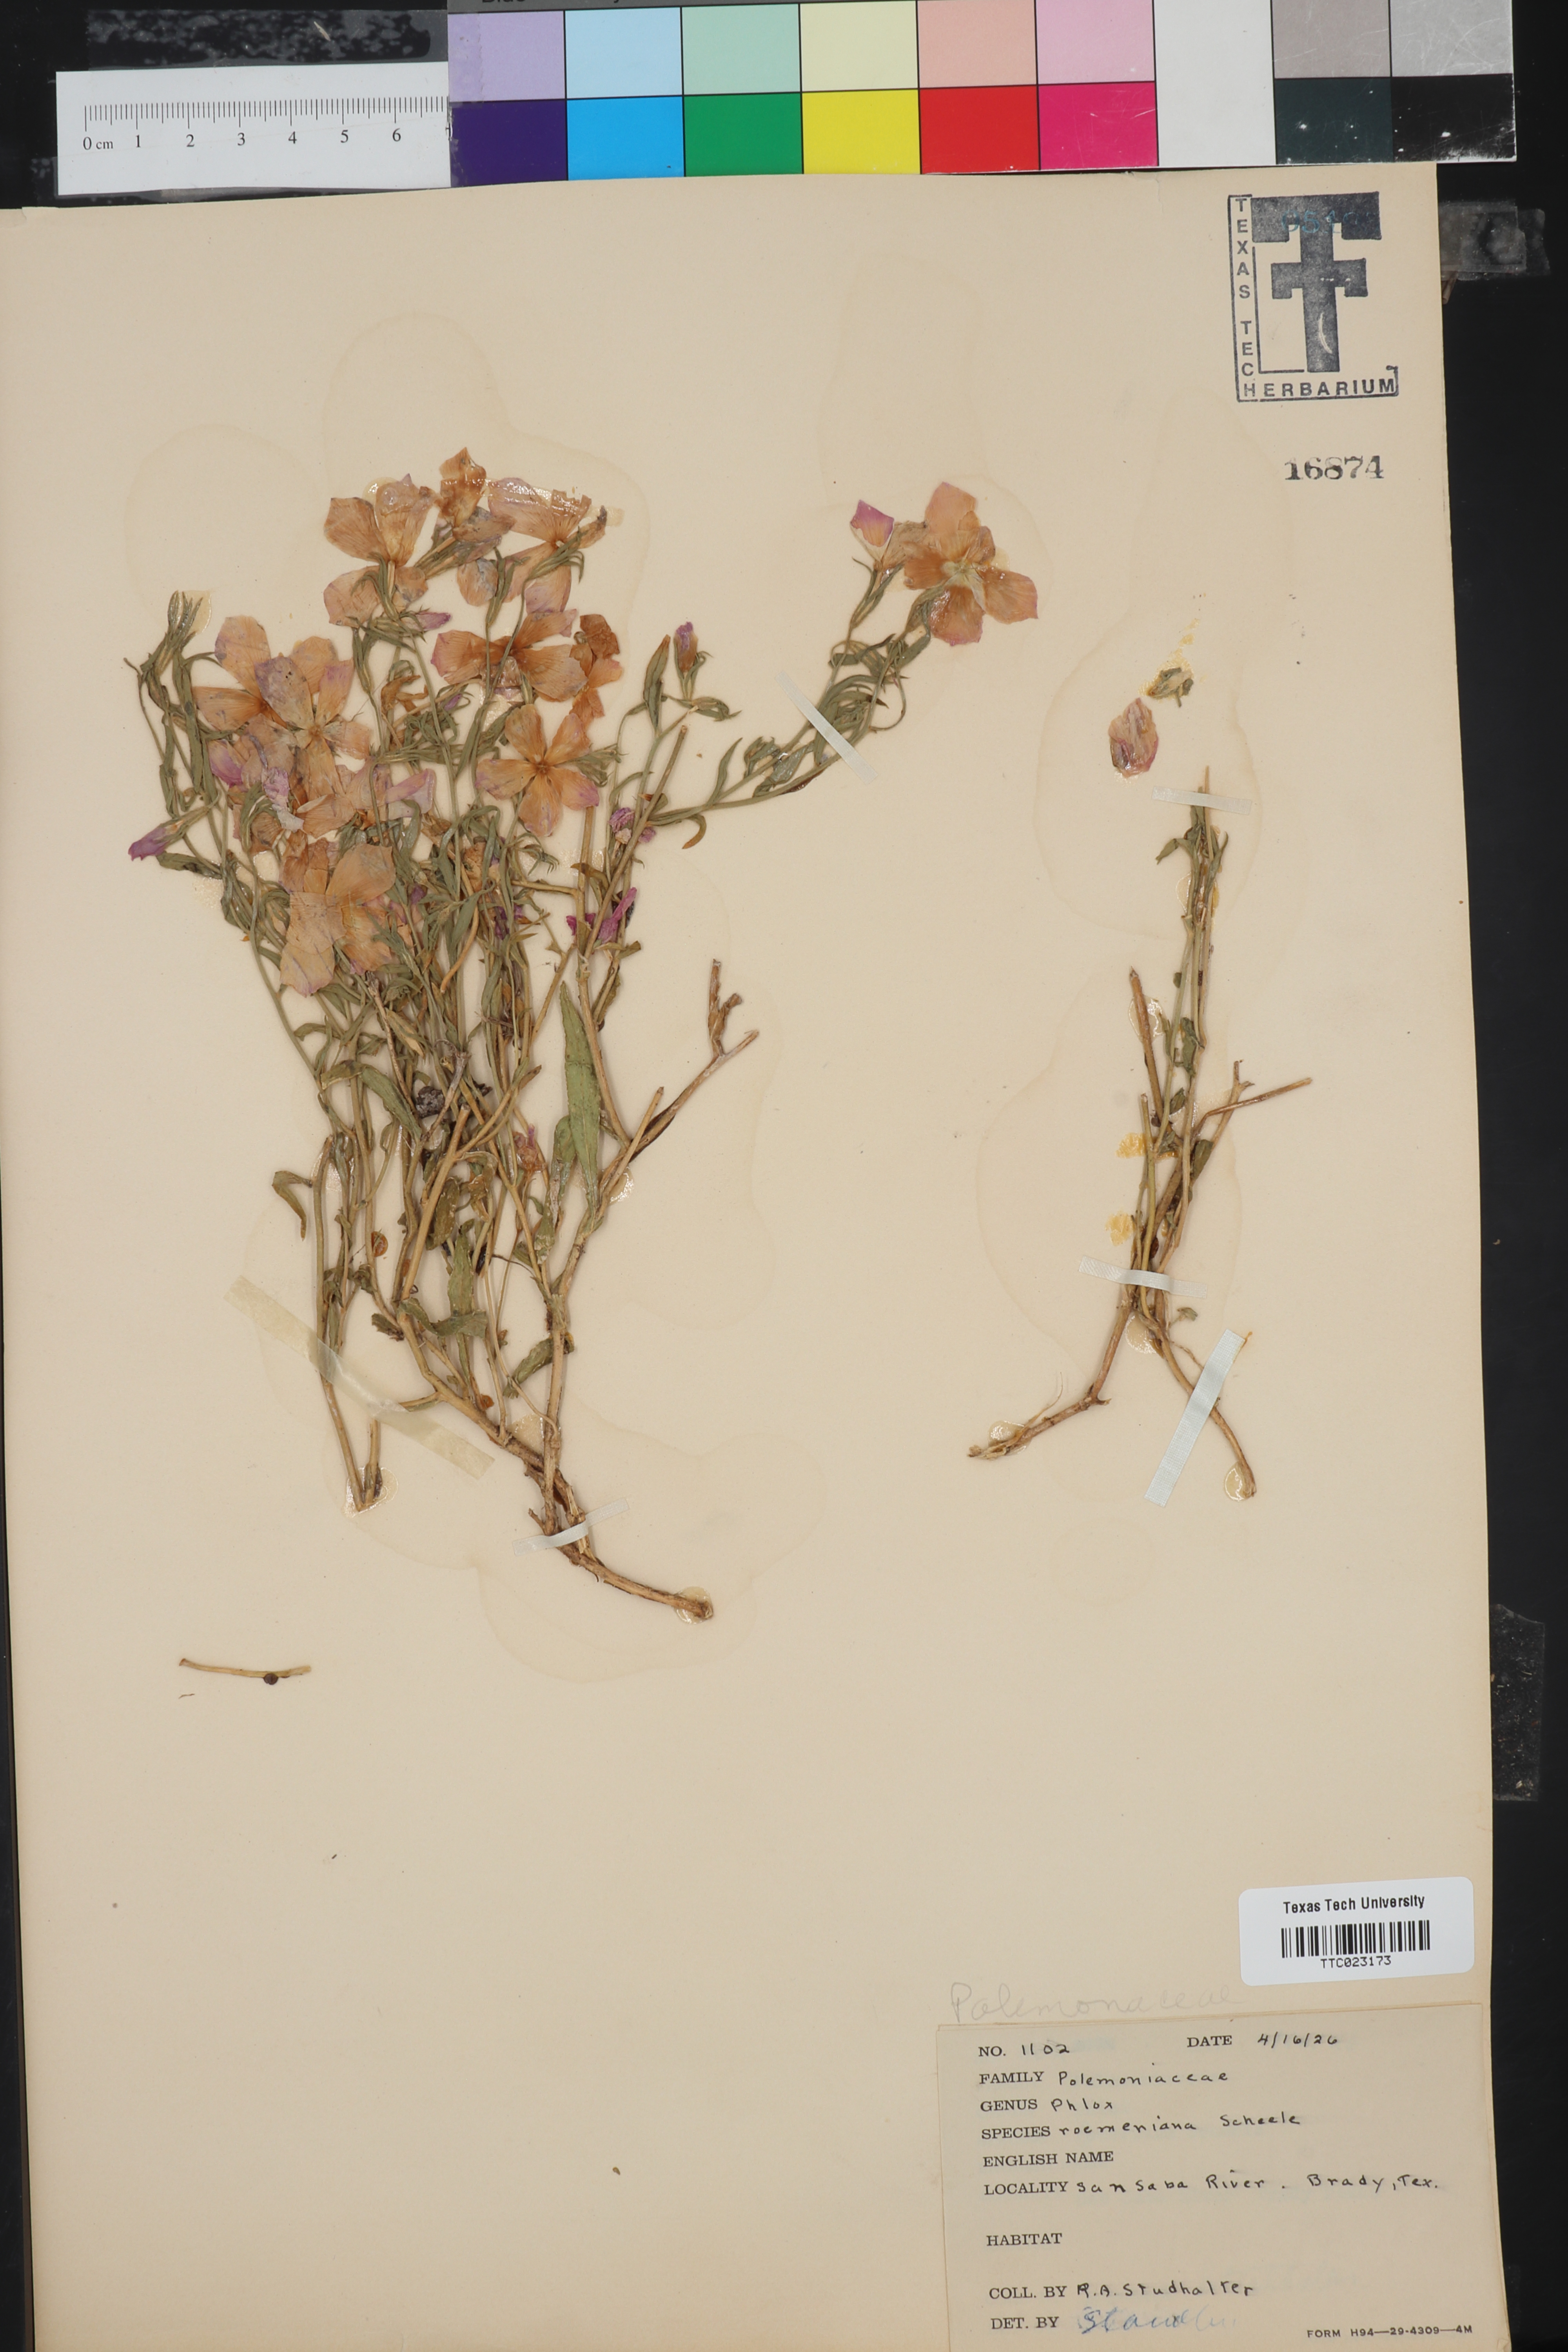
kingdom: Plantae
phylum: Tracheophyta
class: Magnoliopsida
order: Ericales
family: Polemoniaceae
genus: Phlox
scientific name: Phlox roemeriana
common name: Roemer's phlox
